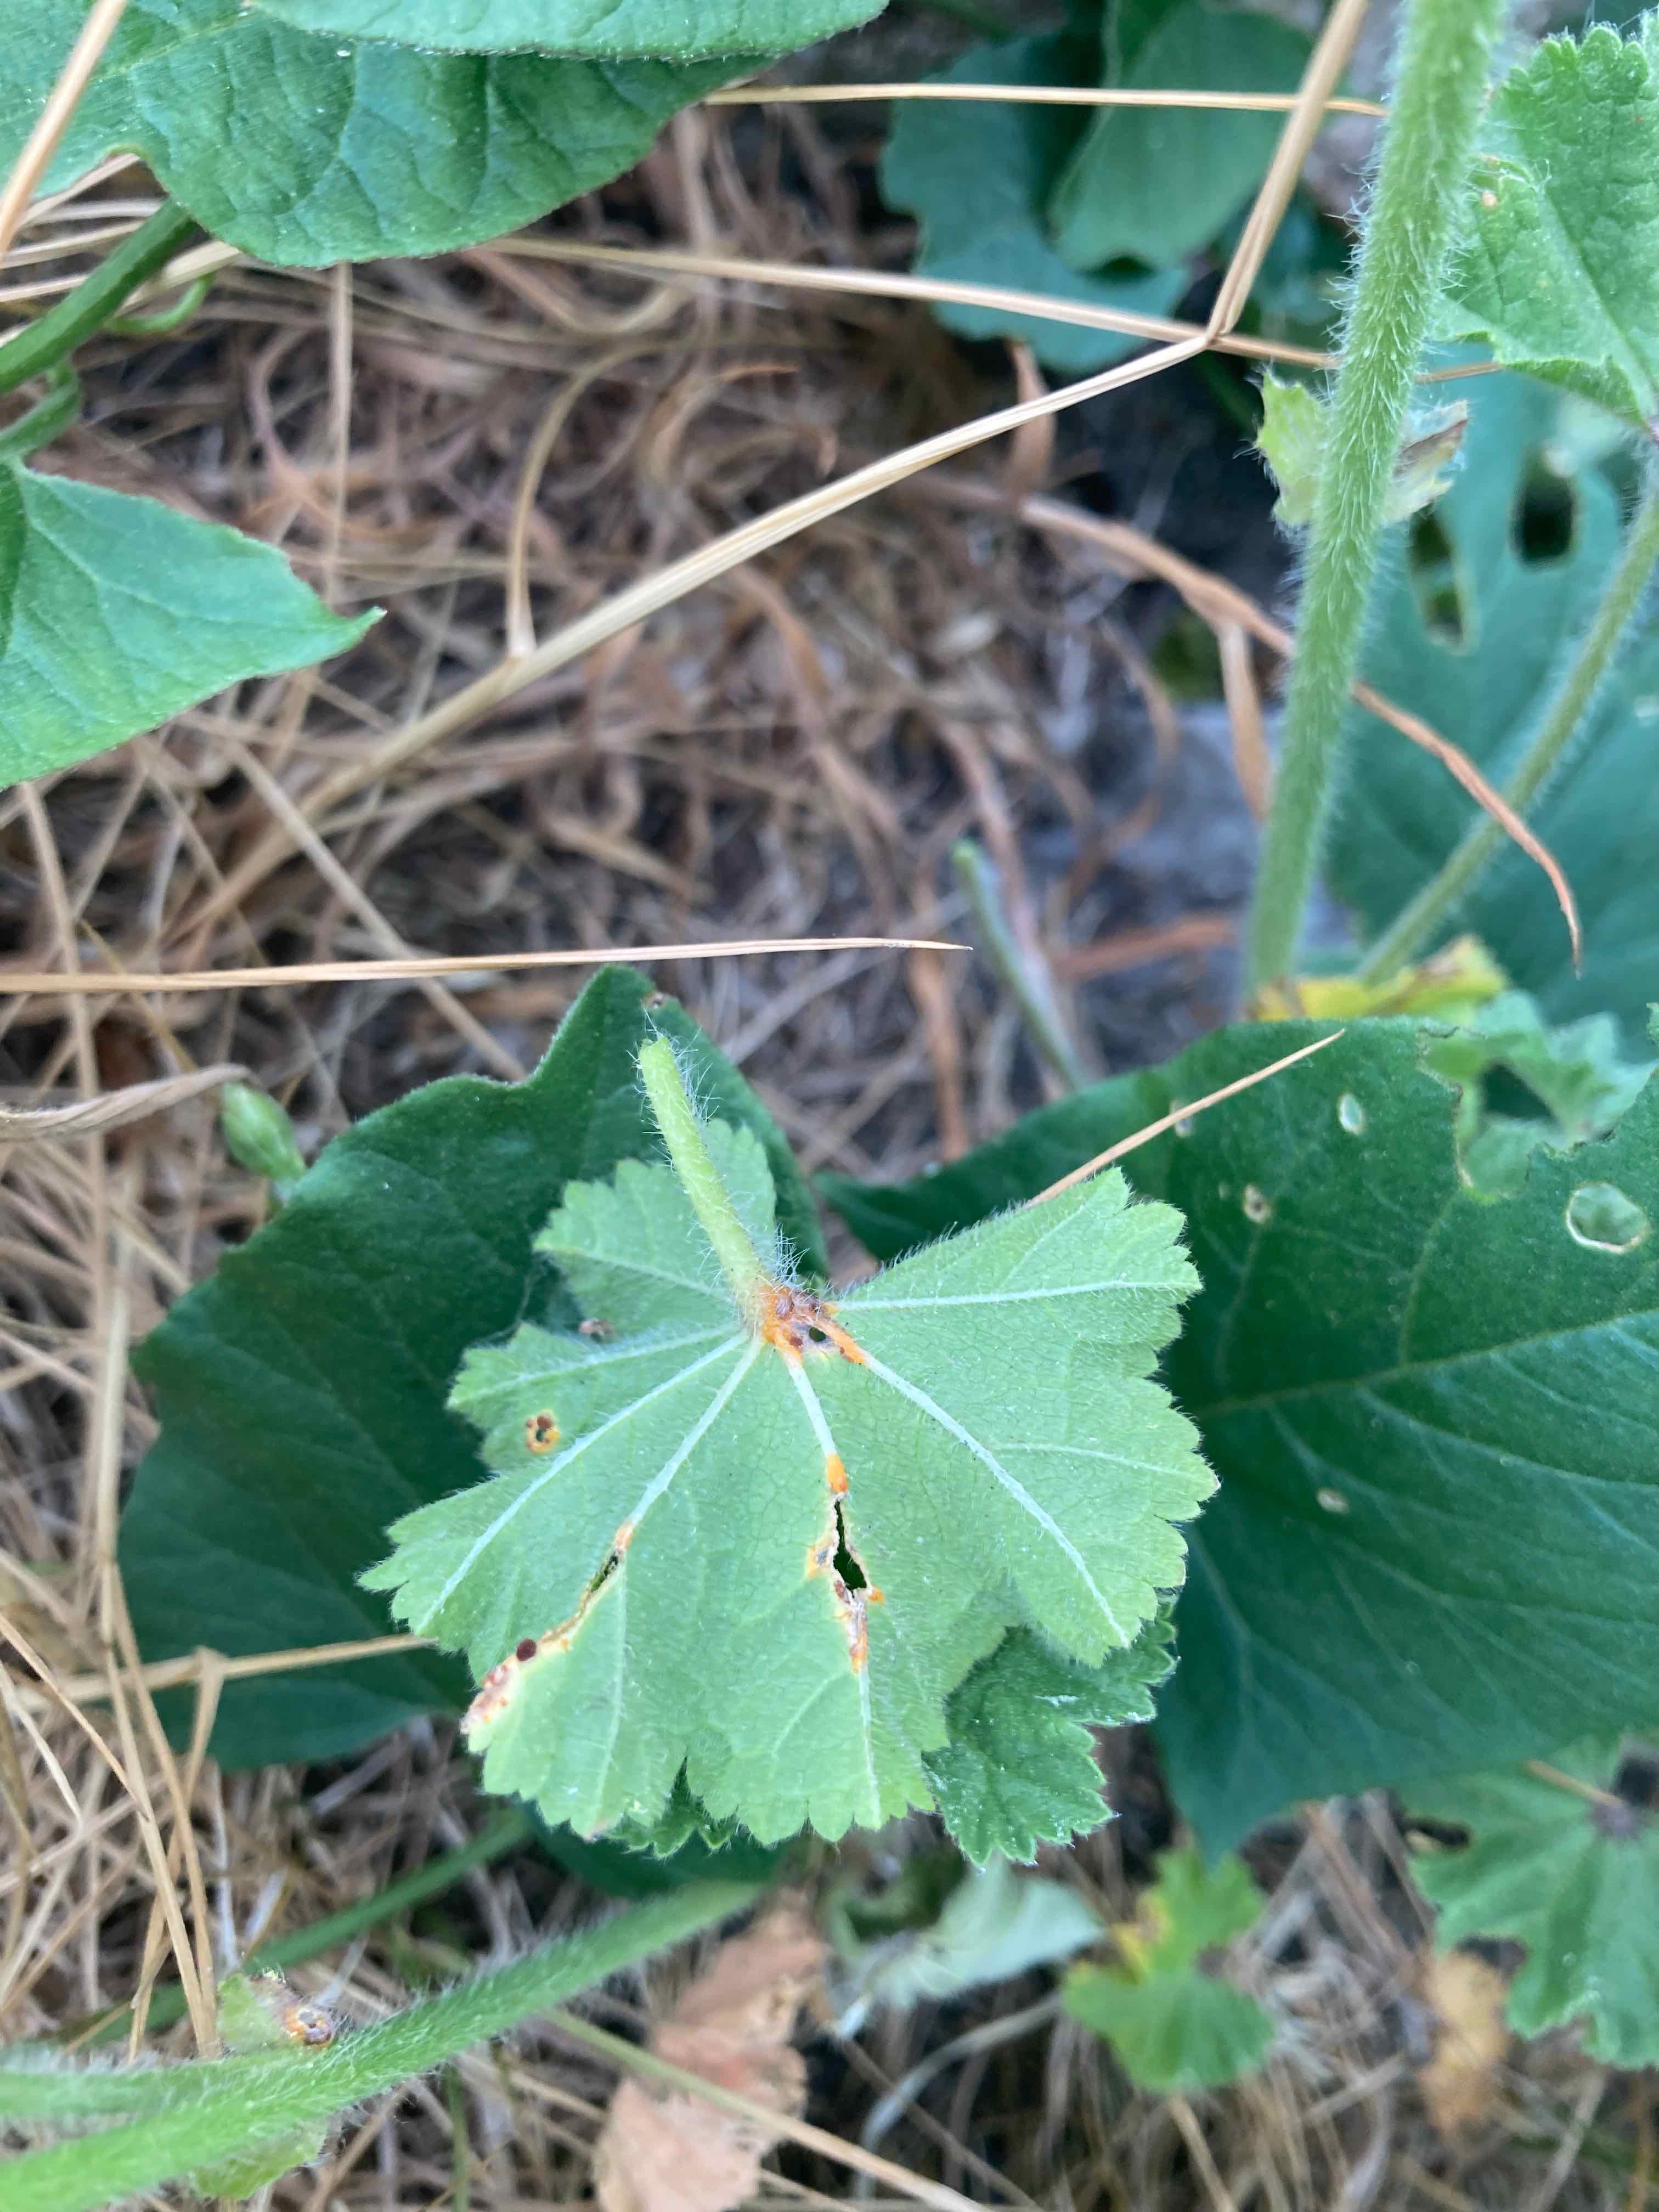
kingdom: Fungi
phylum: Basidiomycota
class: Pucciniomycetes
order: Pucciniales
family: Pucciniaceae
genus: Puccinia
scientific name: Puccinia malvacearum
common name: stokrose-tvecellerust
